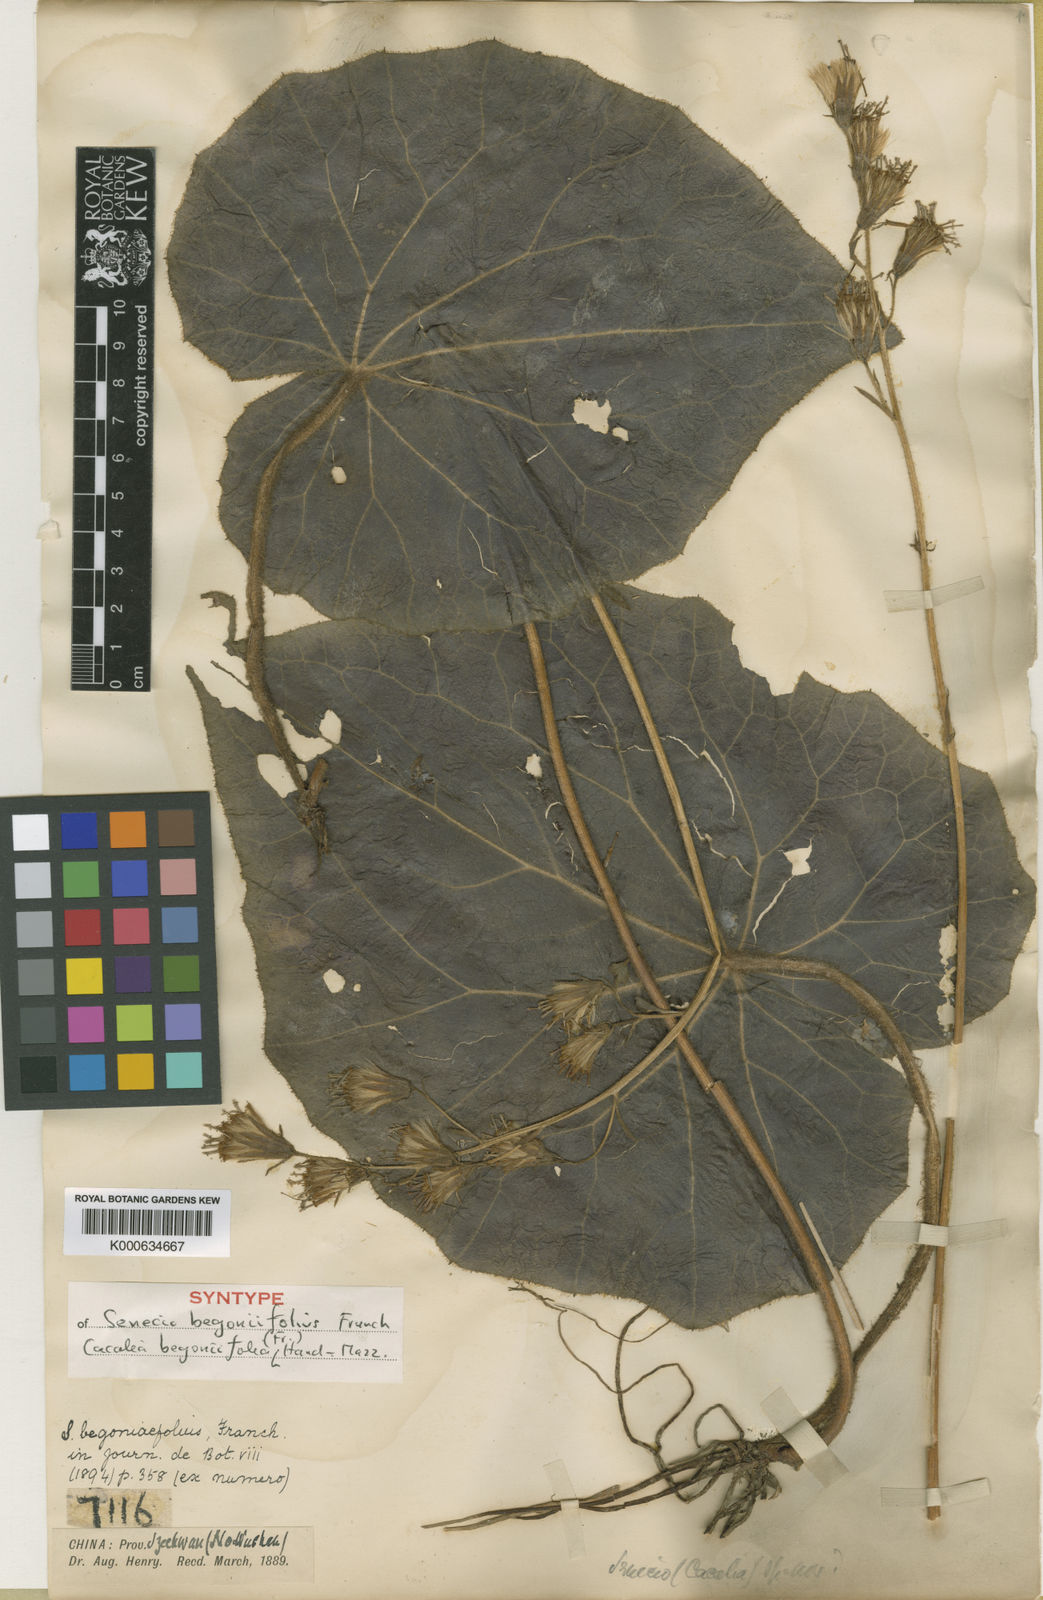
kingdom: Plantae
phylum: Tracheophyta
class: Magnoliopsida
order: Asterales
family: Asteraceae
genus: Parasenecio
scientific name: Parasenecio begoniifolius
